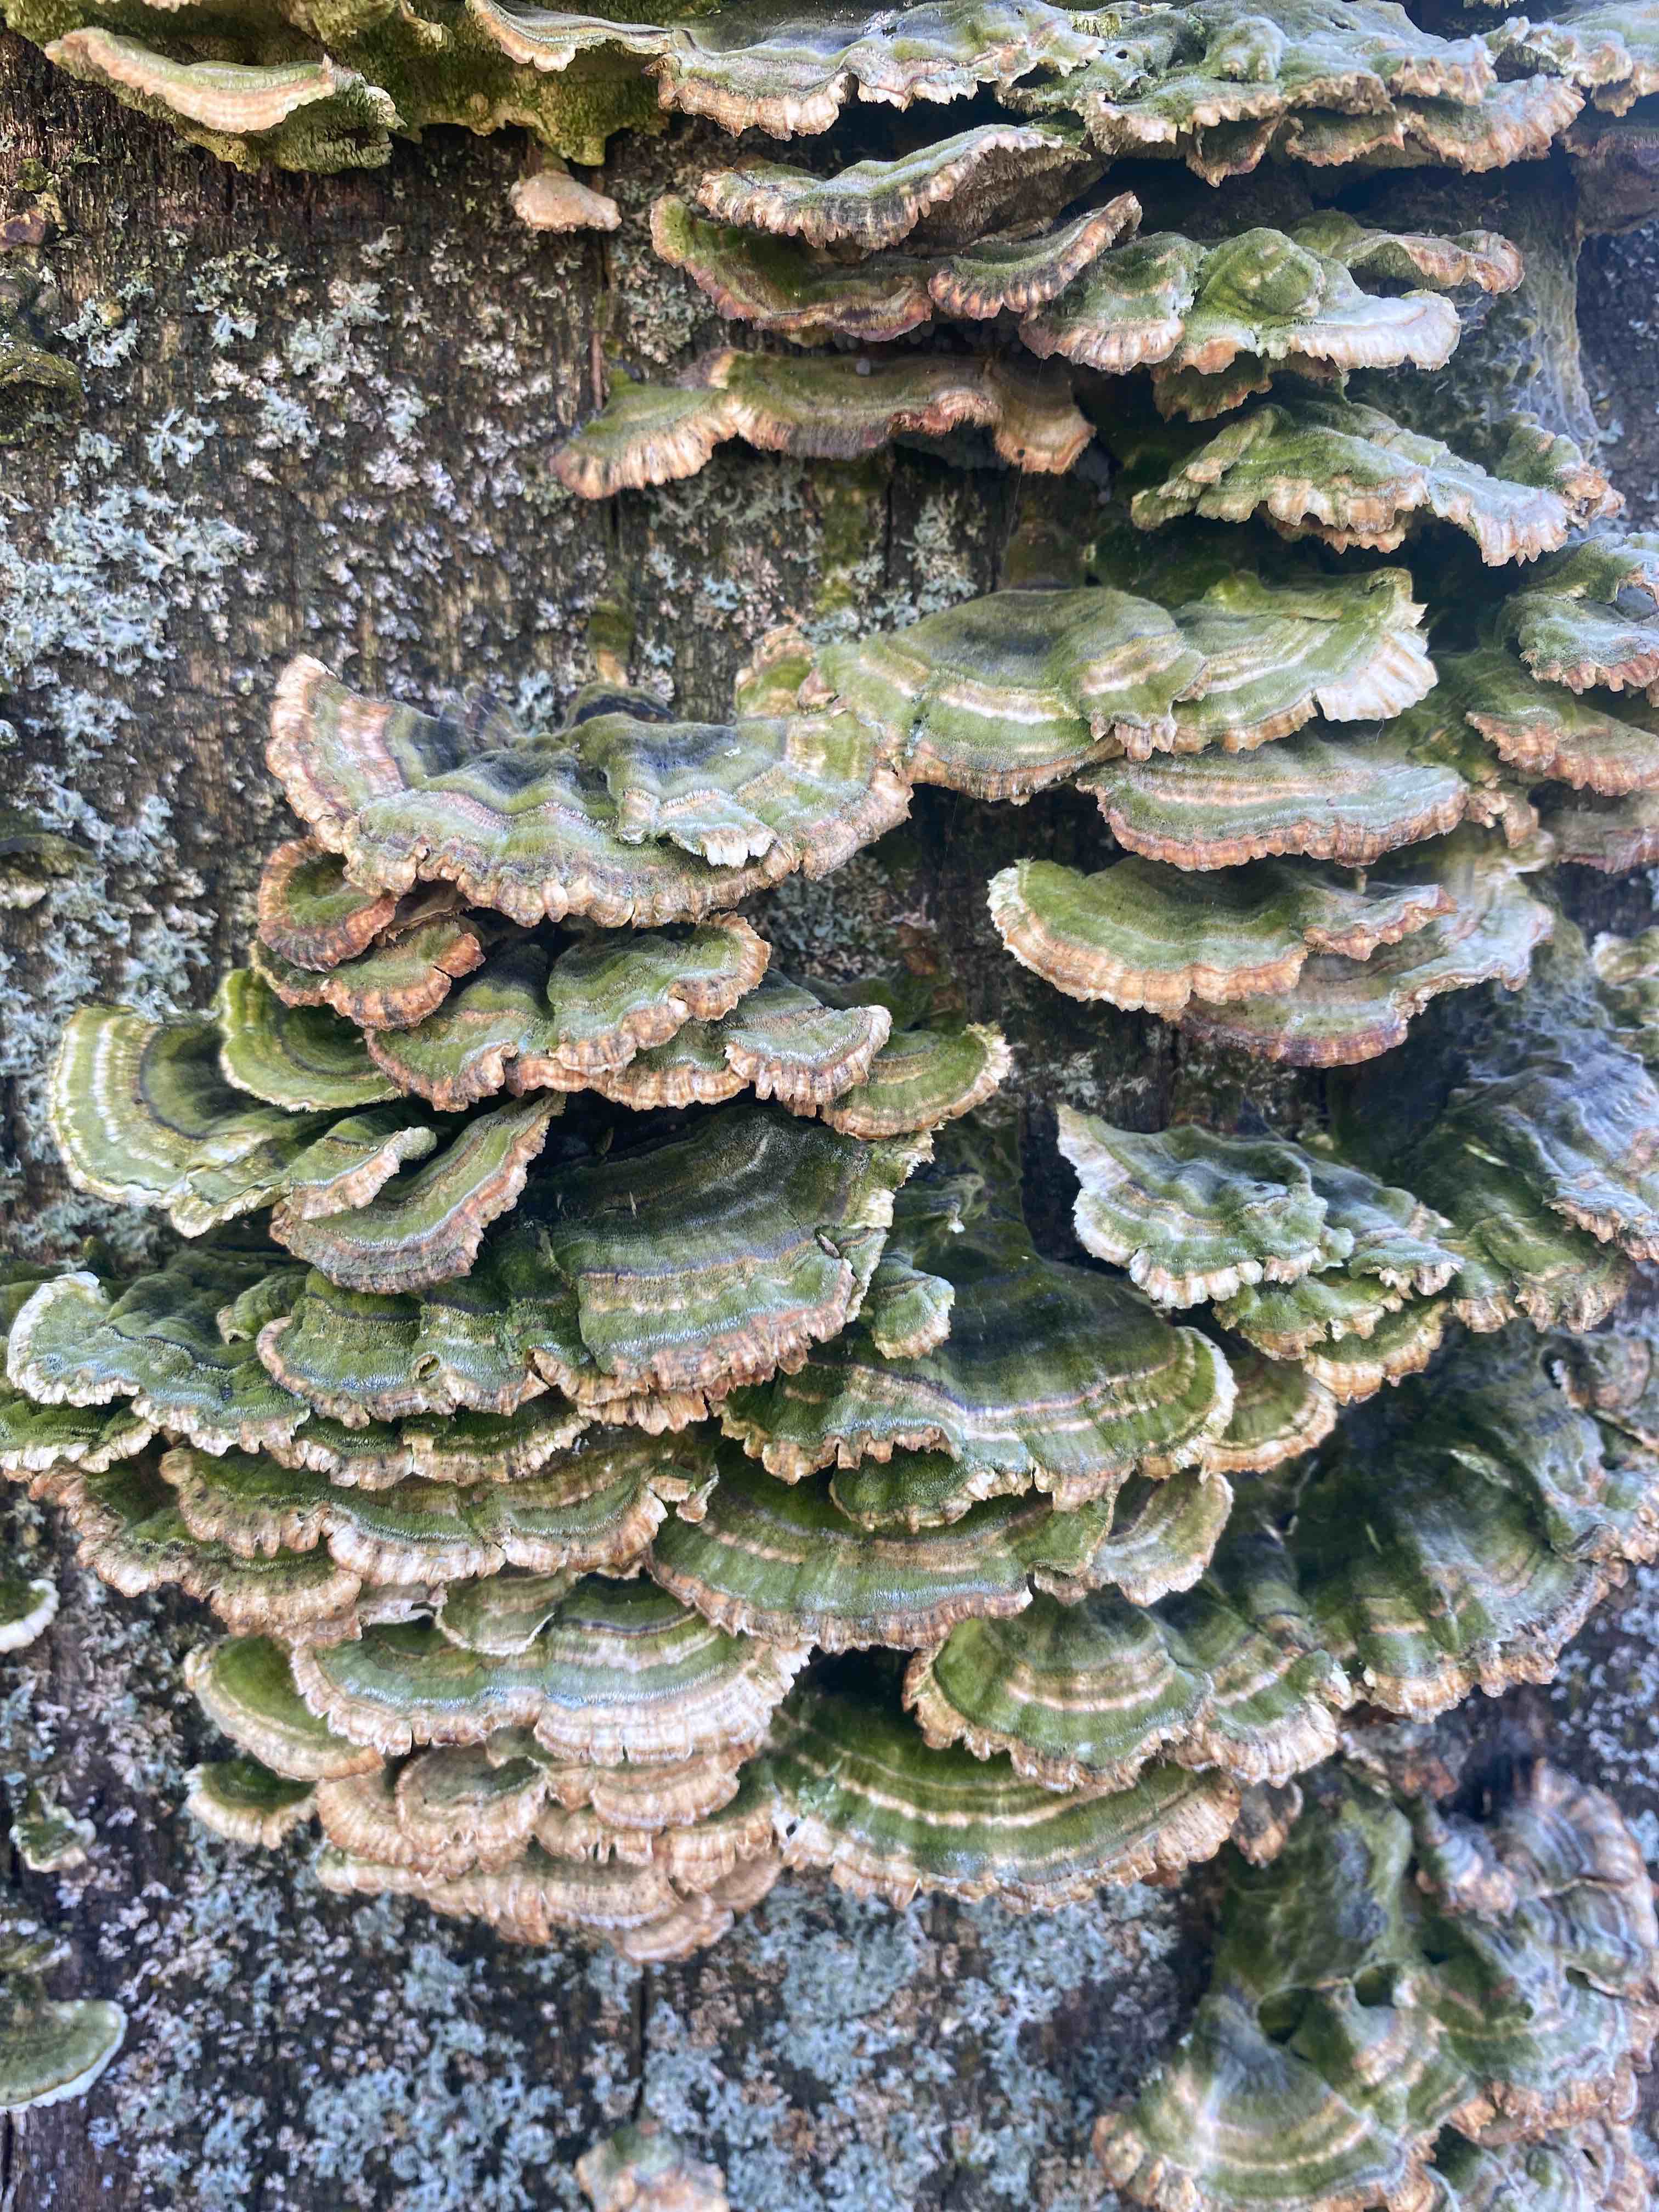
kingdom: Fungi
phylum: Basidiomycota
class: Agaricomycetes
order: Polyporales
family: Polyporaceae
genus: Trametes
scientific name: Trametes versicolor
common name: broget læderporesvamp
